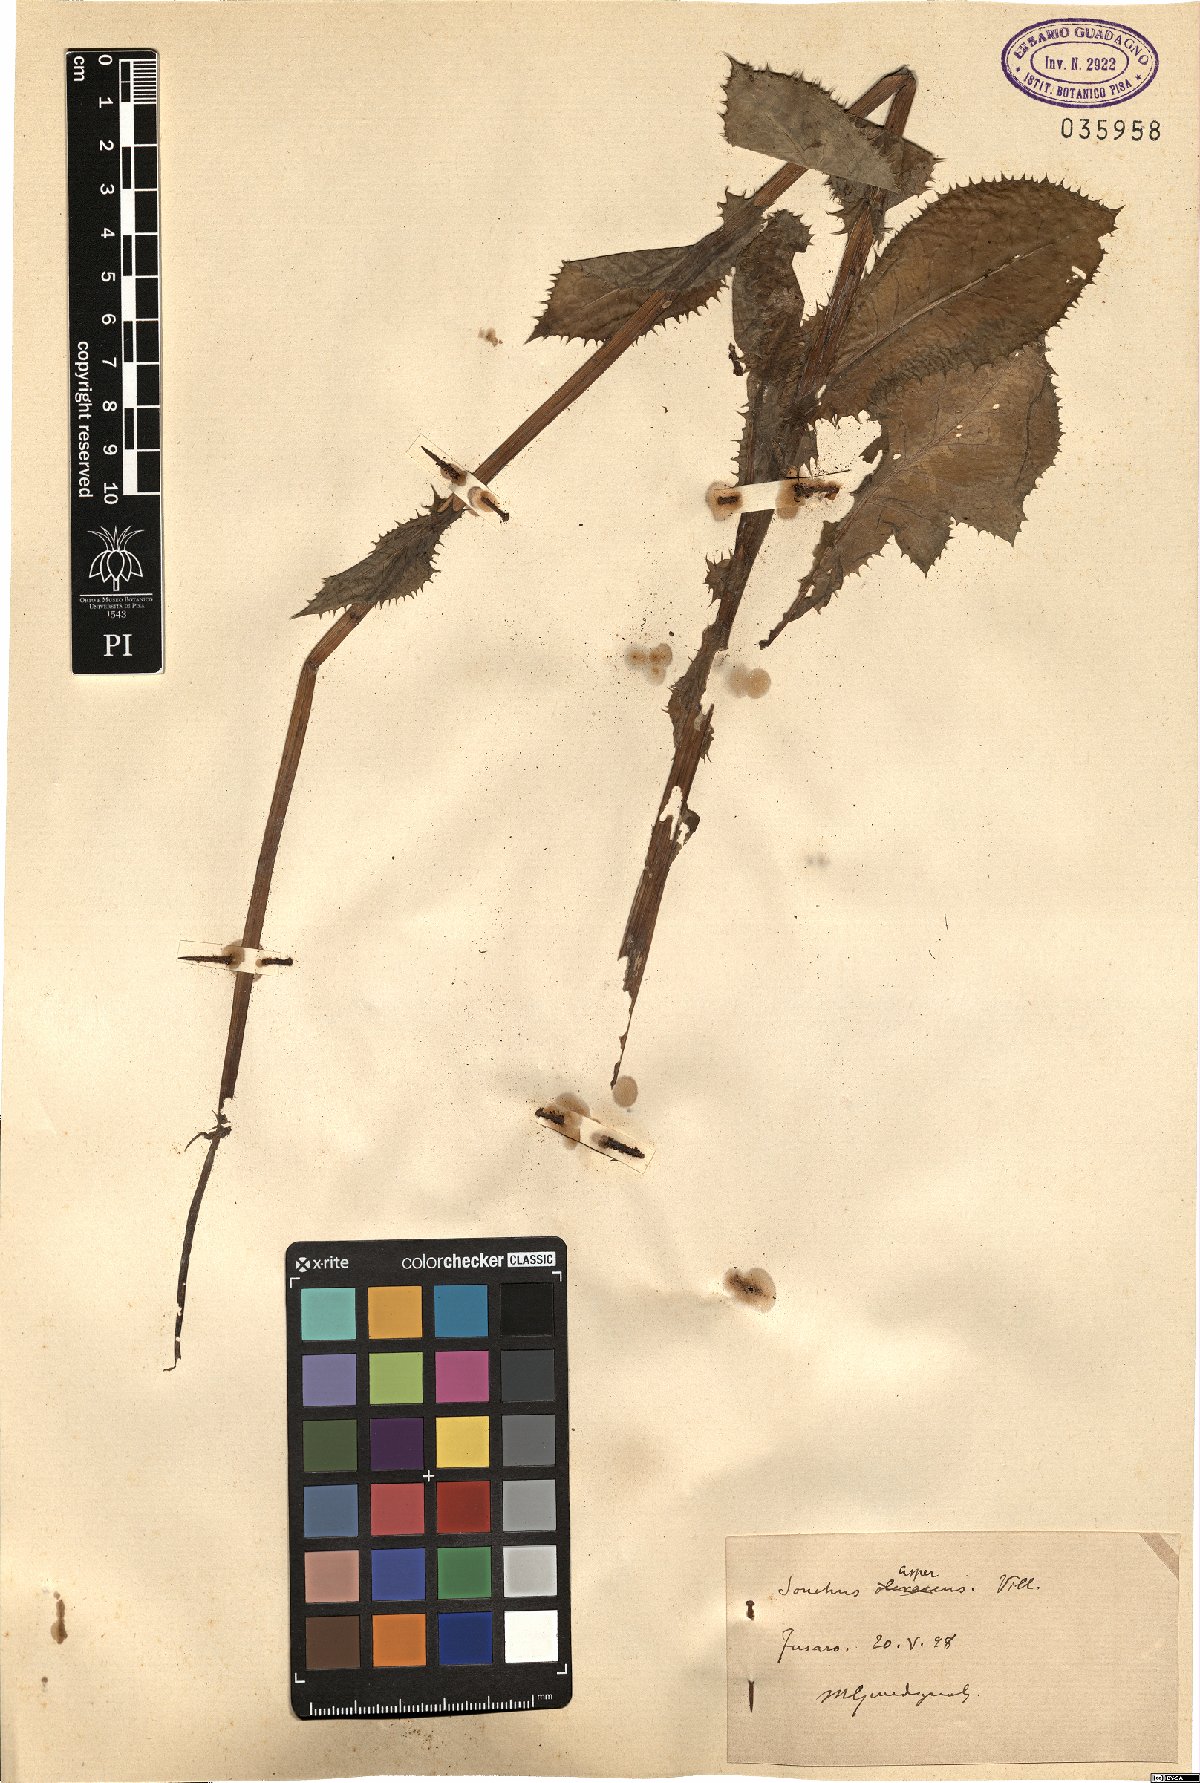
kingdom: Plantae
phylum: Tracheophyta
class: Magnoliopsida
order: Asterales
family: Asteraceae
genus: Sonchus
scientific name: Sonchus asper
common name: Prickly sow-thistle
